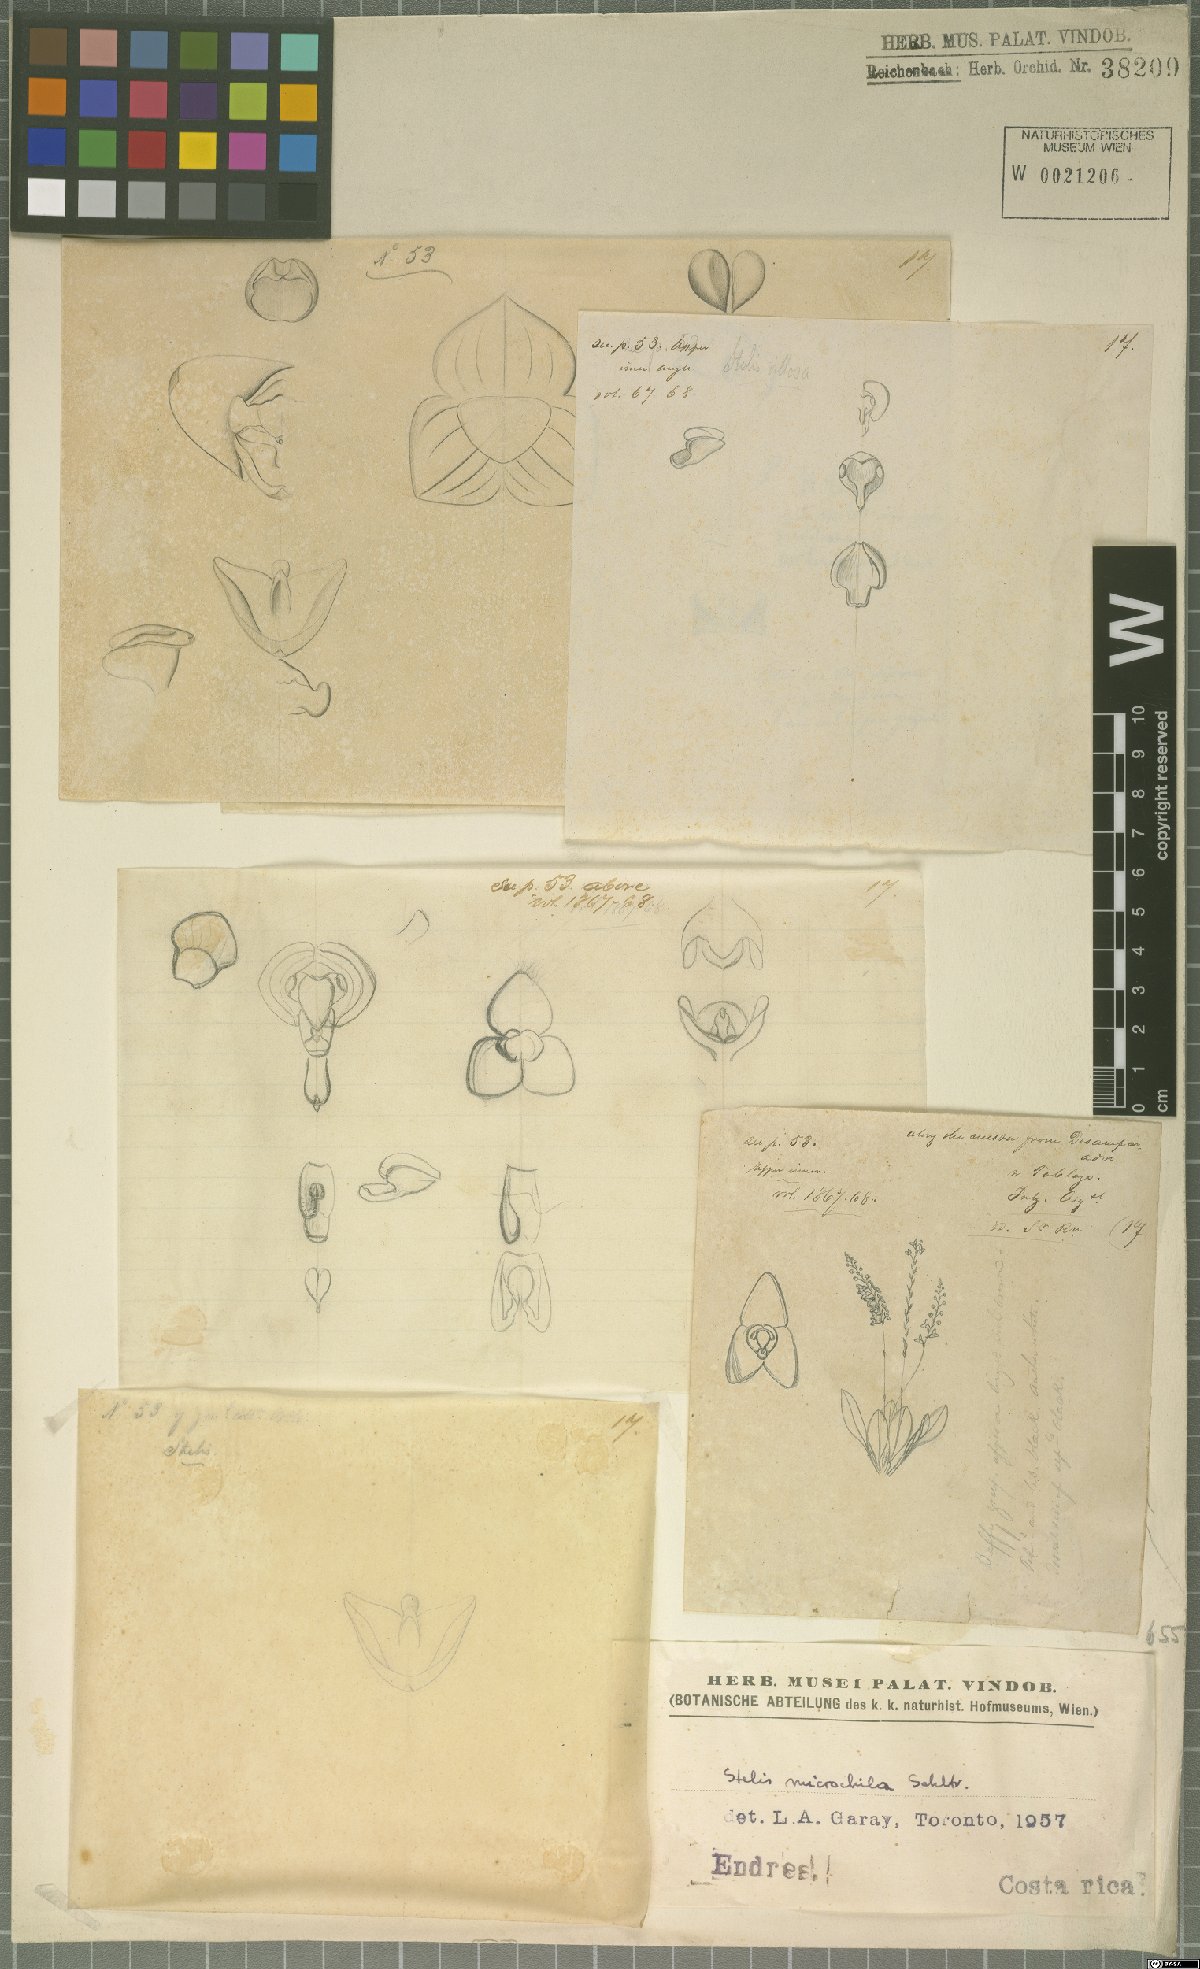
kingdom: Plantae
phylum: Tracheophyta
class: Liliopsida
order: Asparagales
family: Orchidaceae
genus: Stelis
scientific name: Stelis microchila
